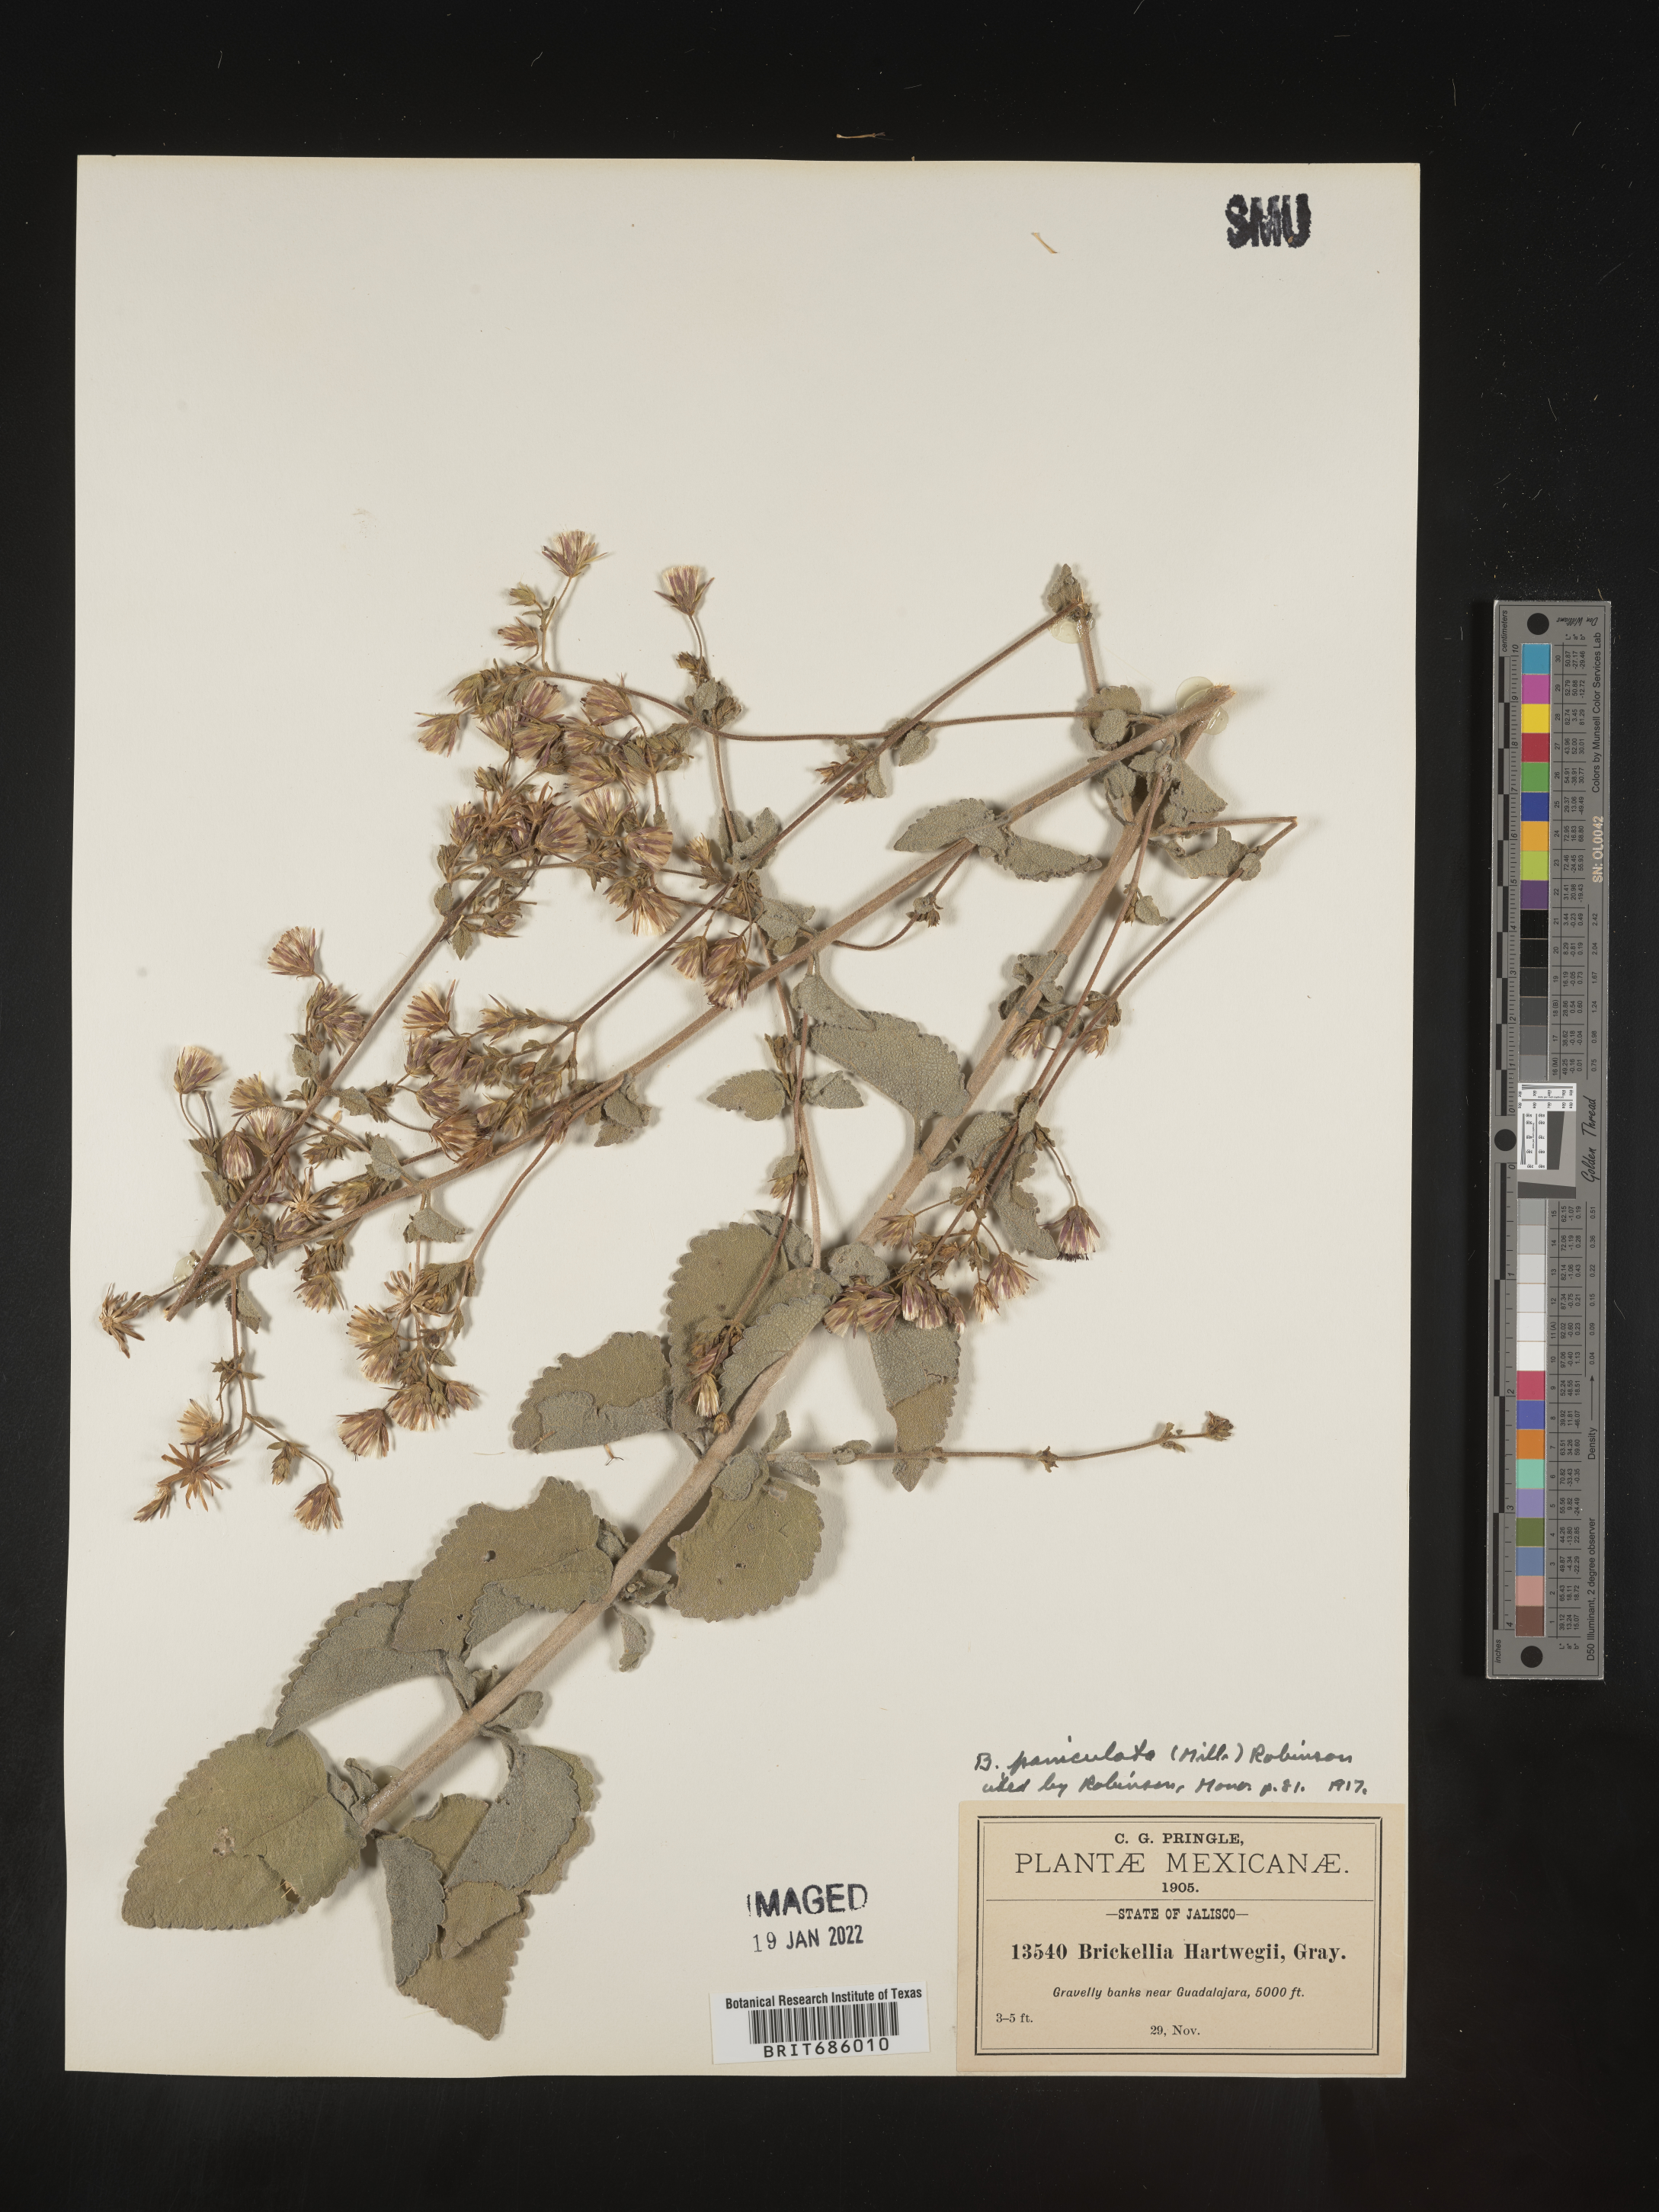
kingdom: Plantae
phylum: Tracheophyta
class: Magnoliopsida
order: Asterales
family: Asteraceae
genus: Brickellia
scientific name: Brickellia
